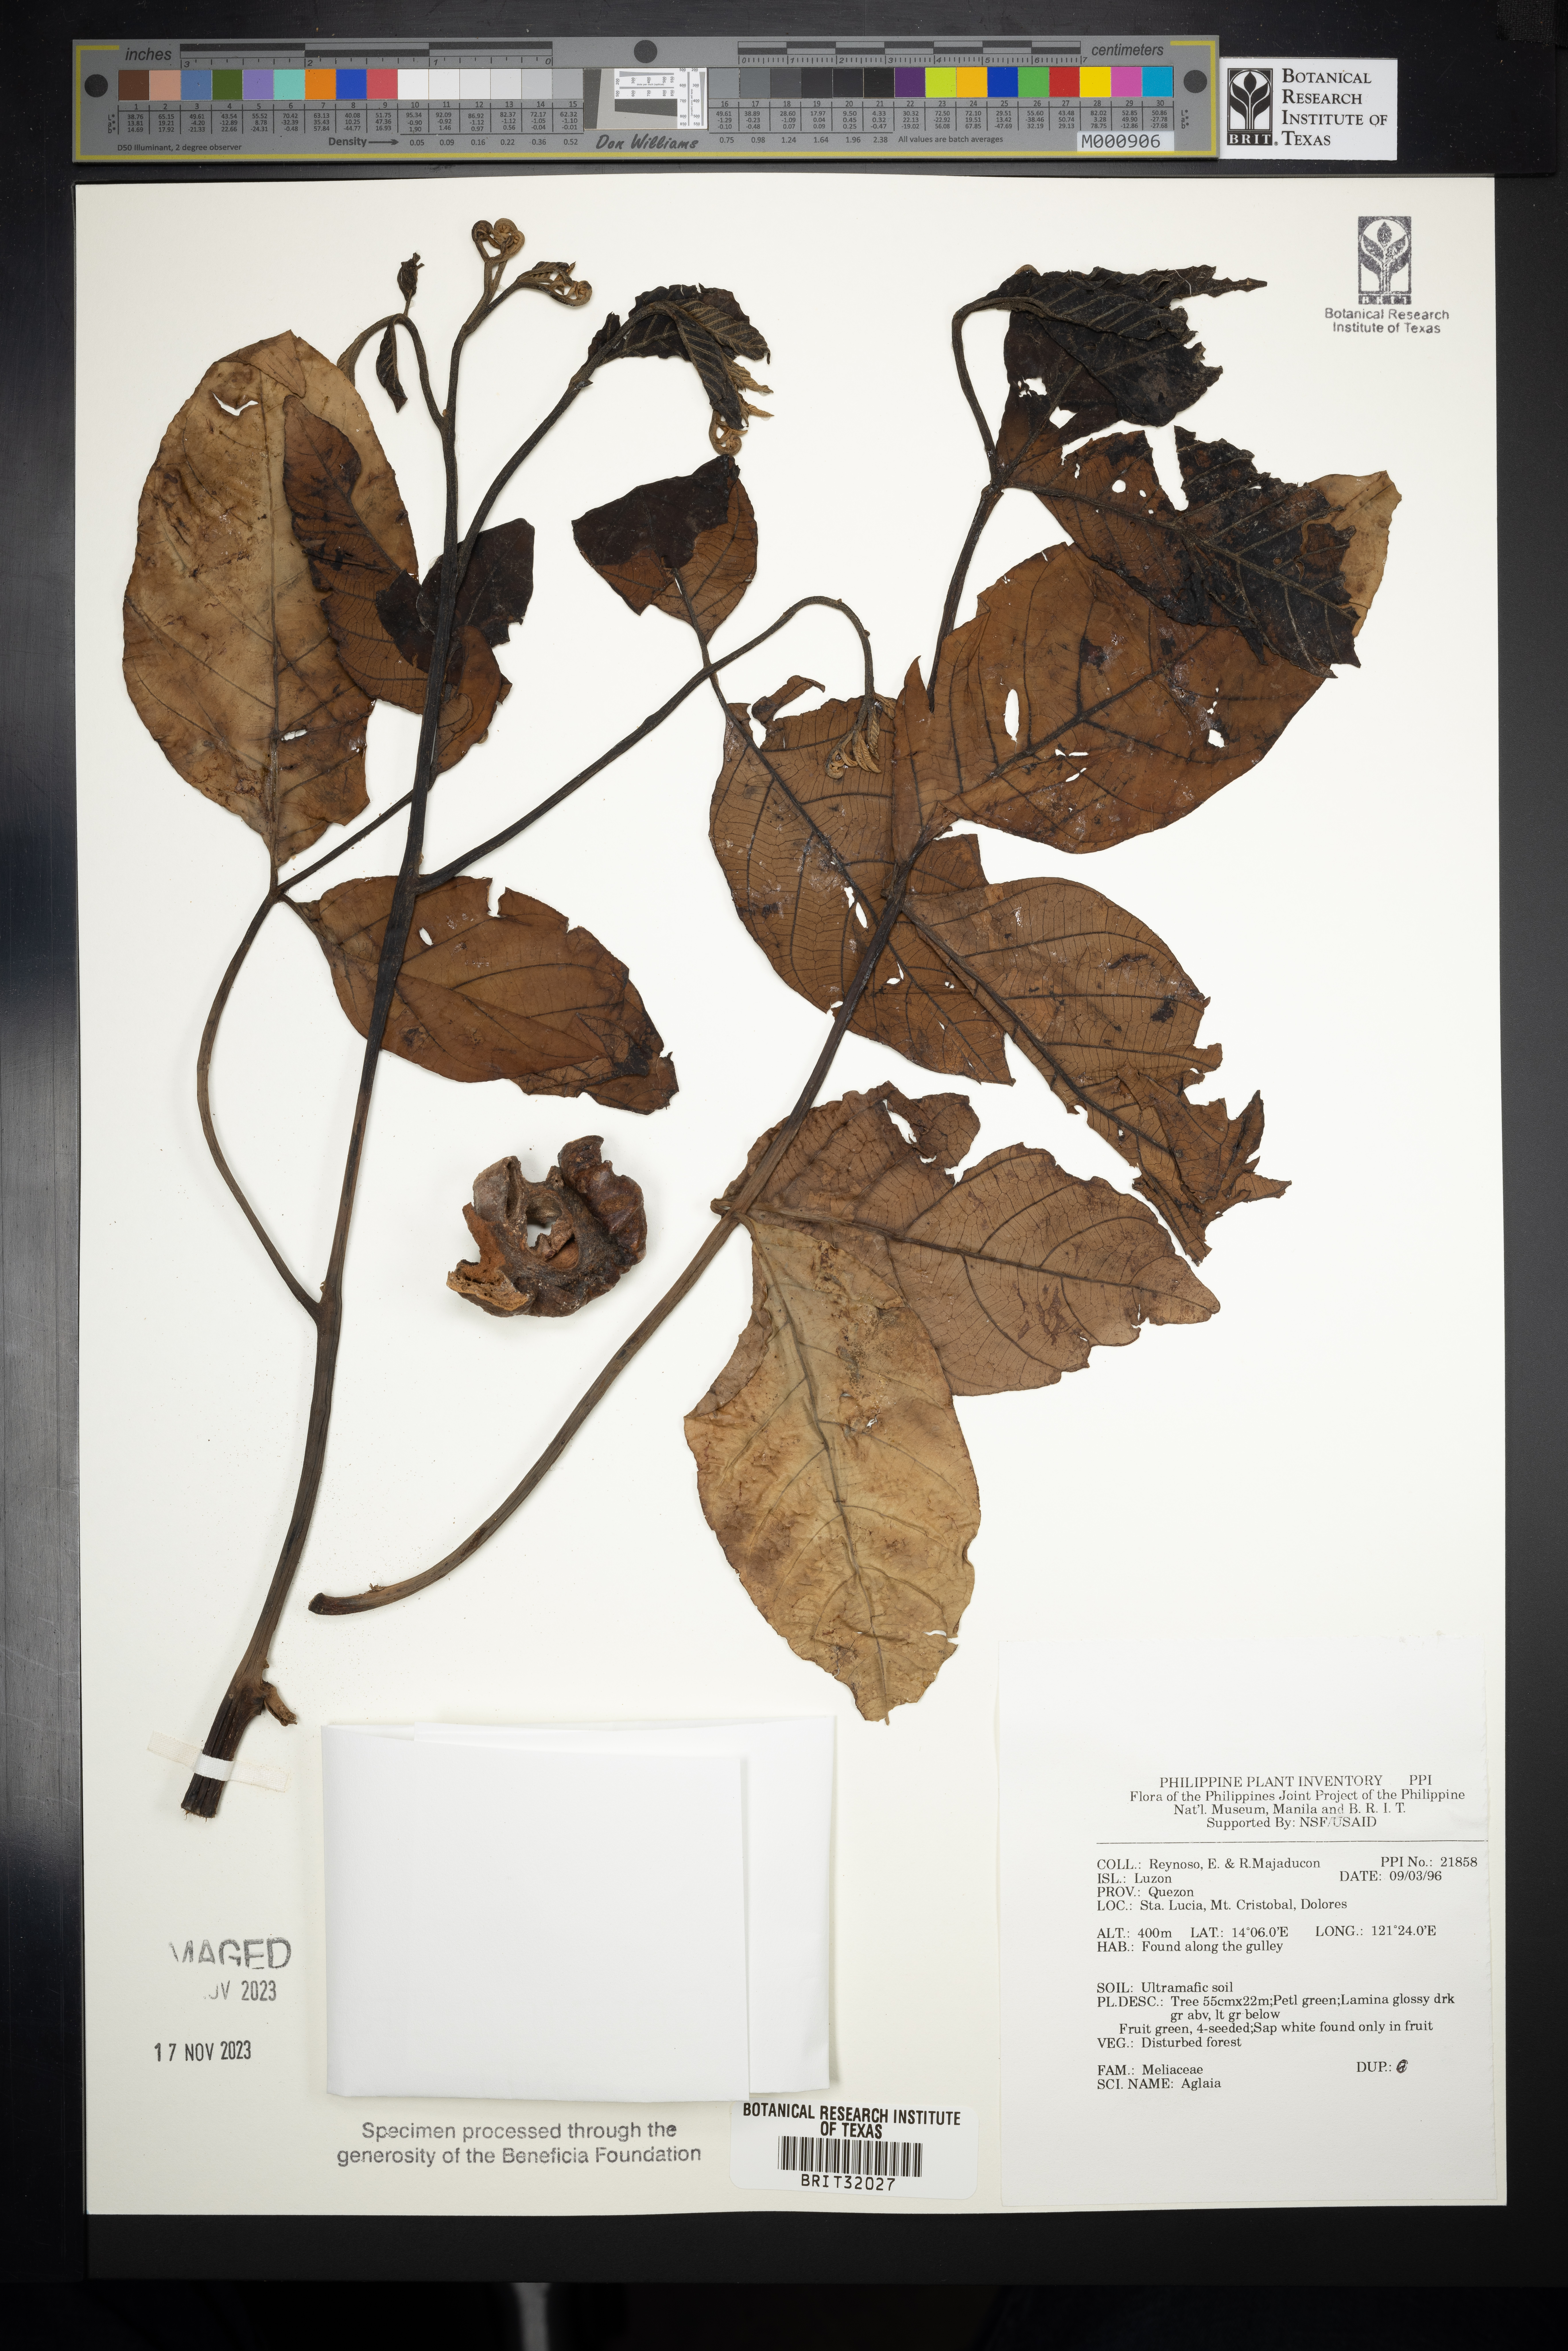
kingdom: Plantae
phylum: Tracheophyta
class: Magnoliopsida
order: Sapindales
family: Meliaceae
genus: Aglaia
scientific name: Aglaia
